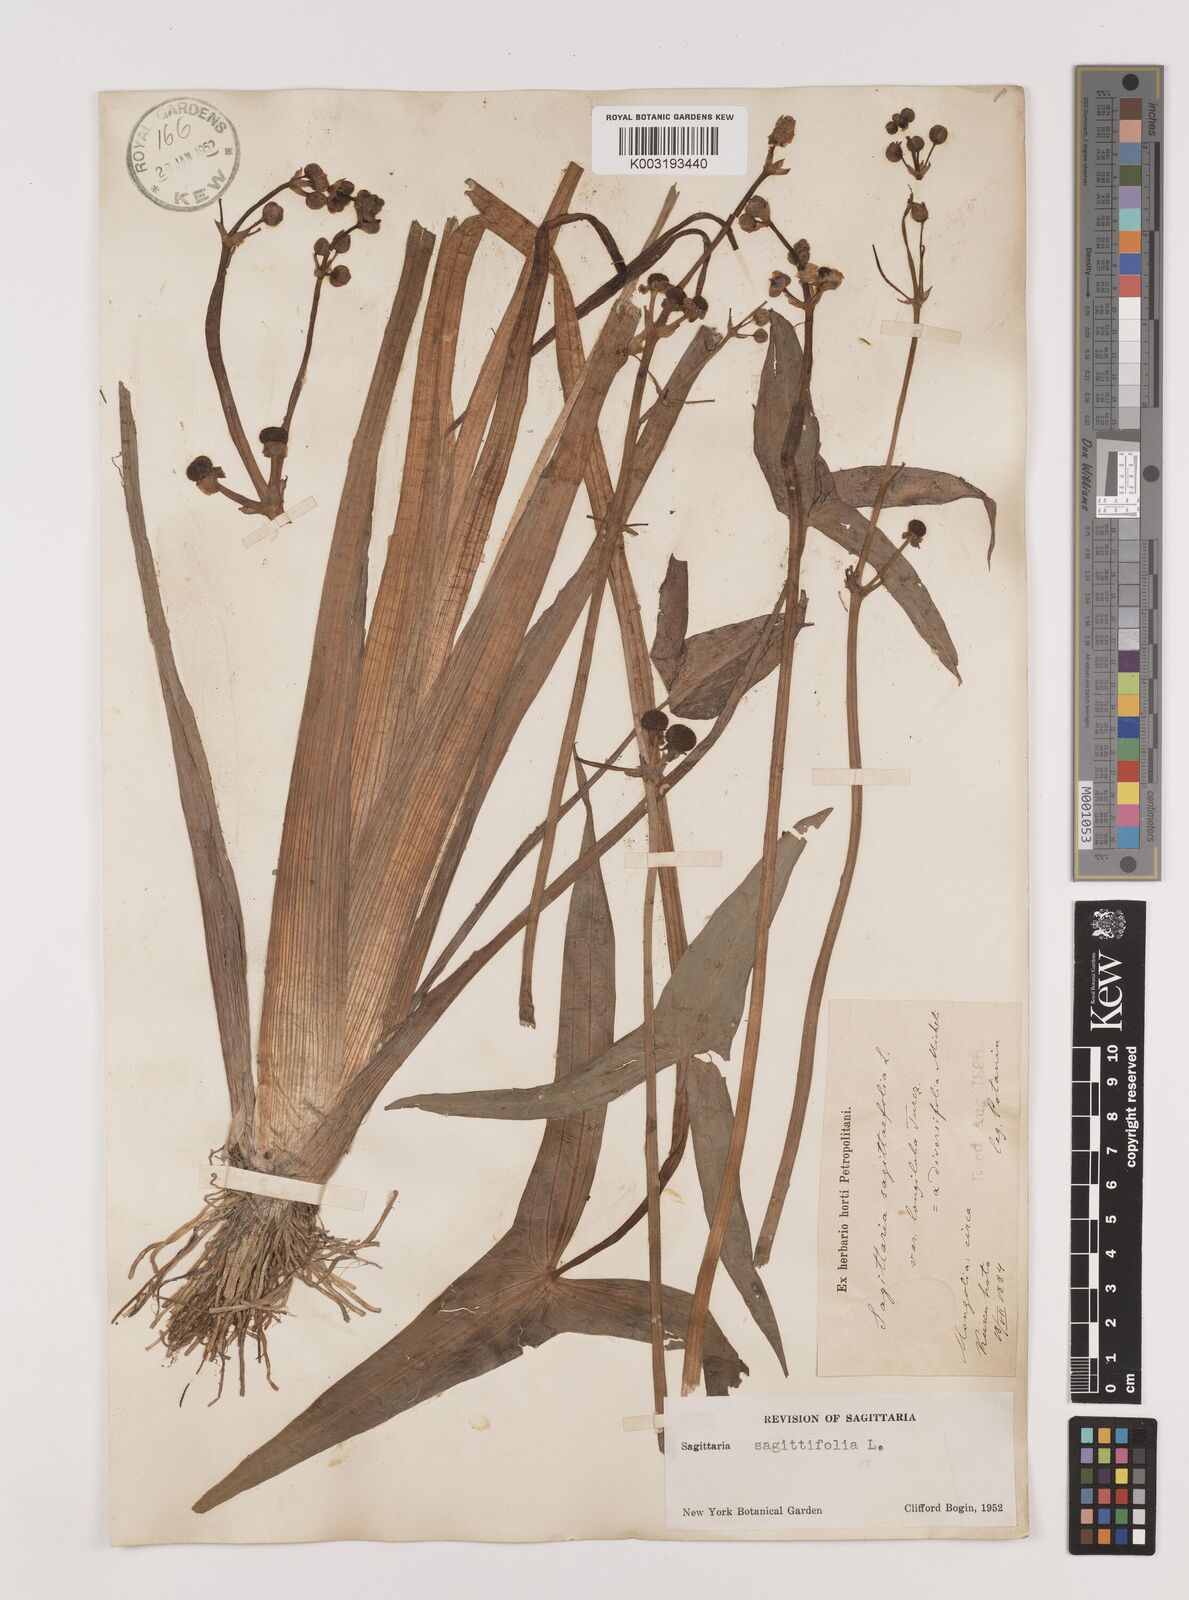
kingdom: Plantae
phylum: Tracheophyta
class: Liliopsida
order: Alismatales
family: Alismataceae
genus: Sagittaria
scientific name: Sagittaria trifolia
